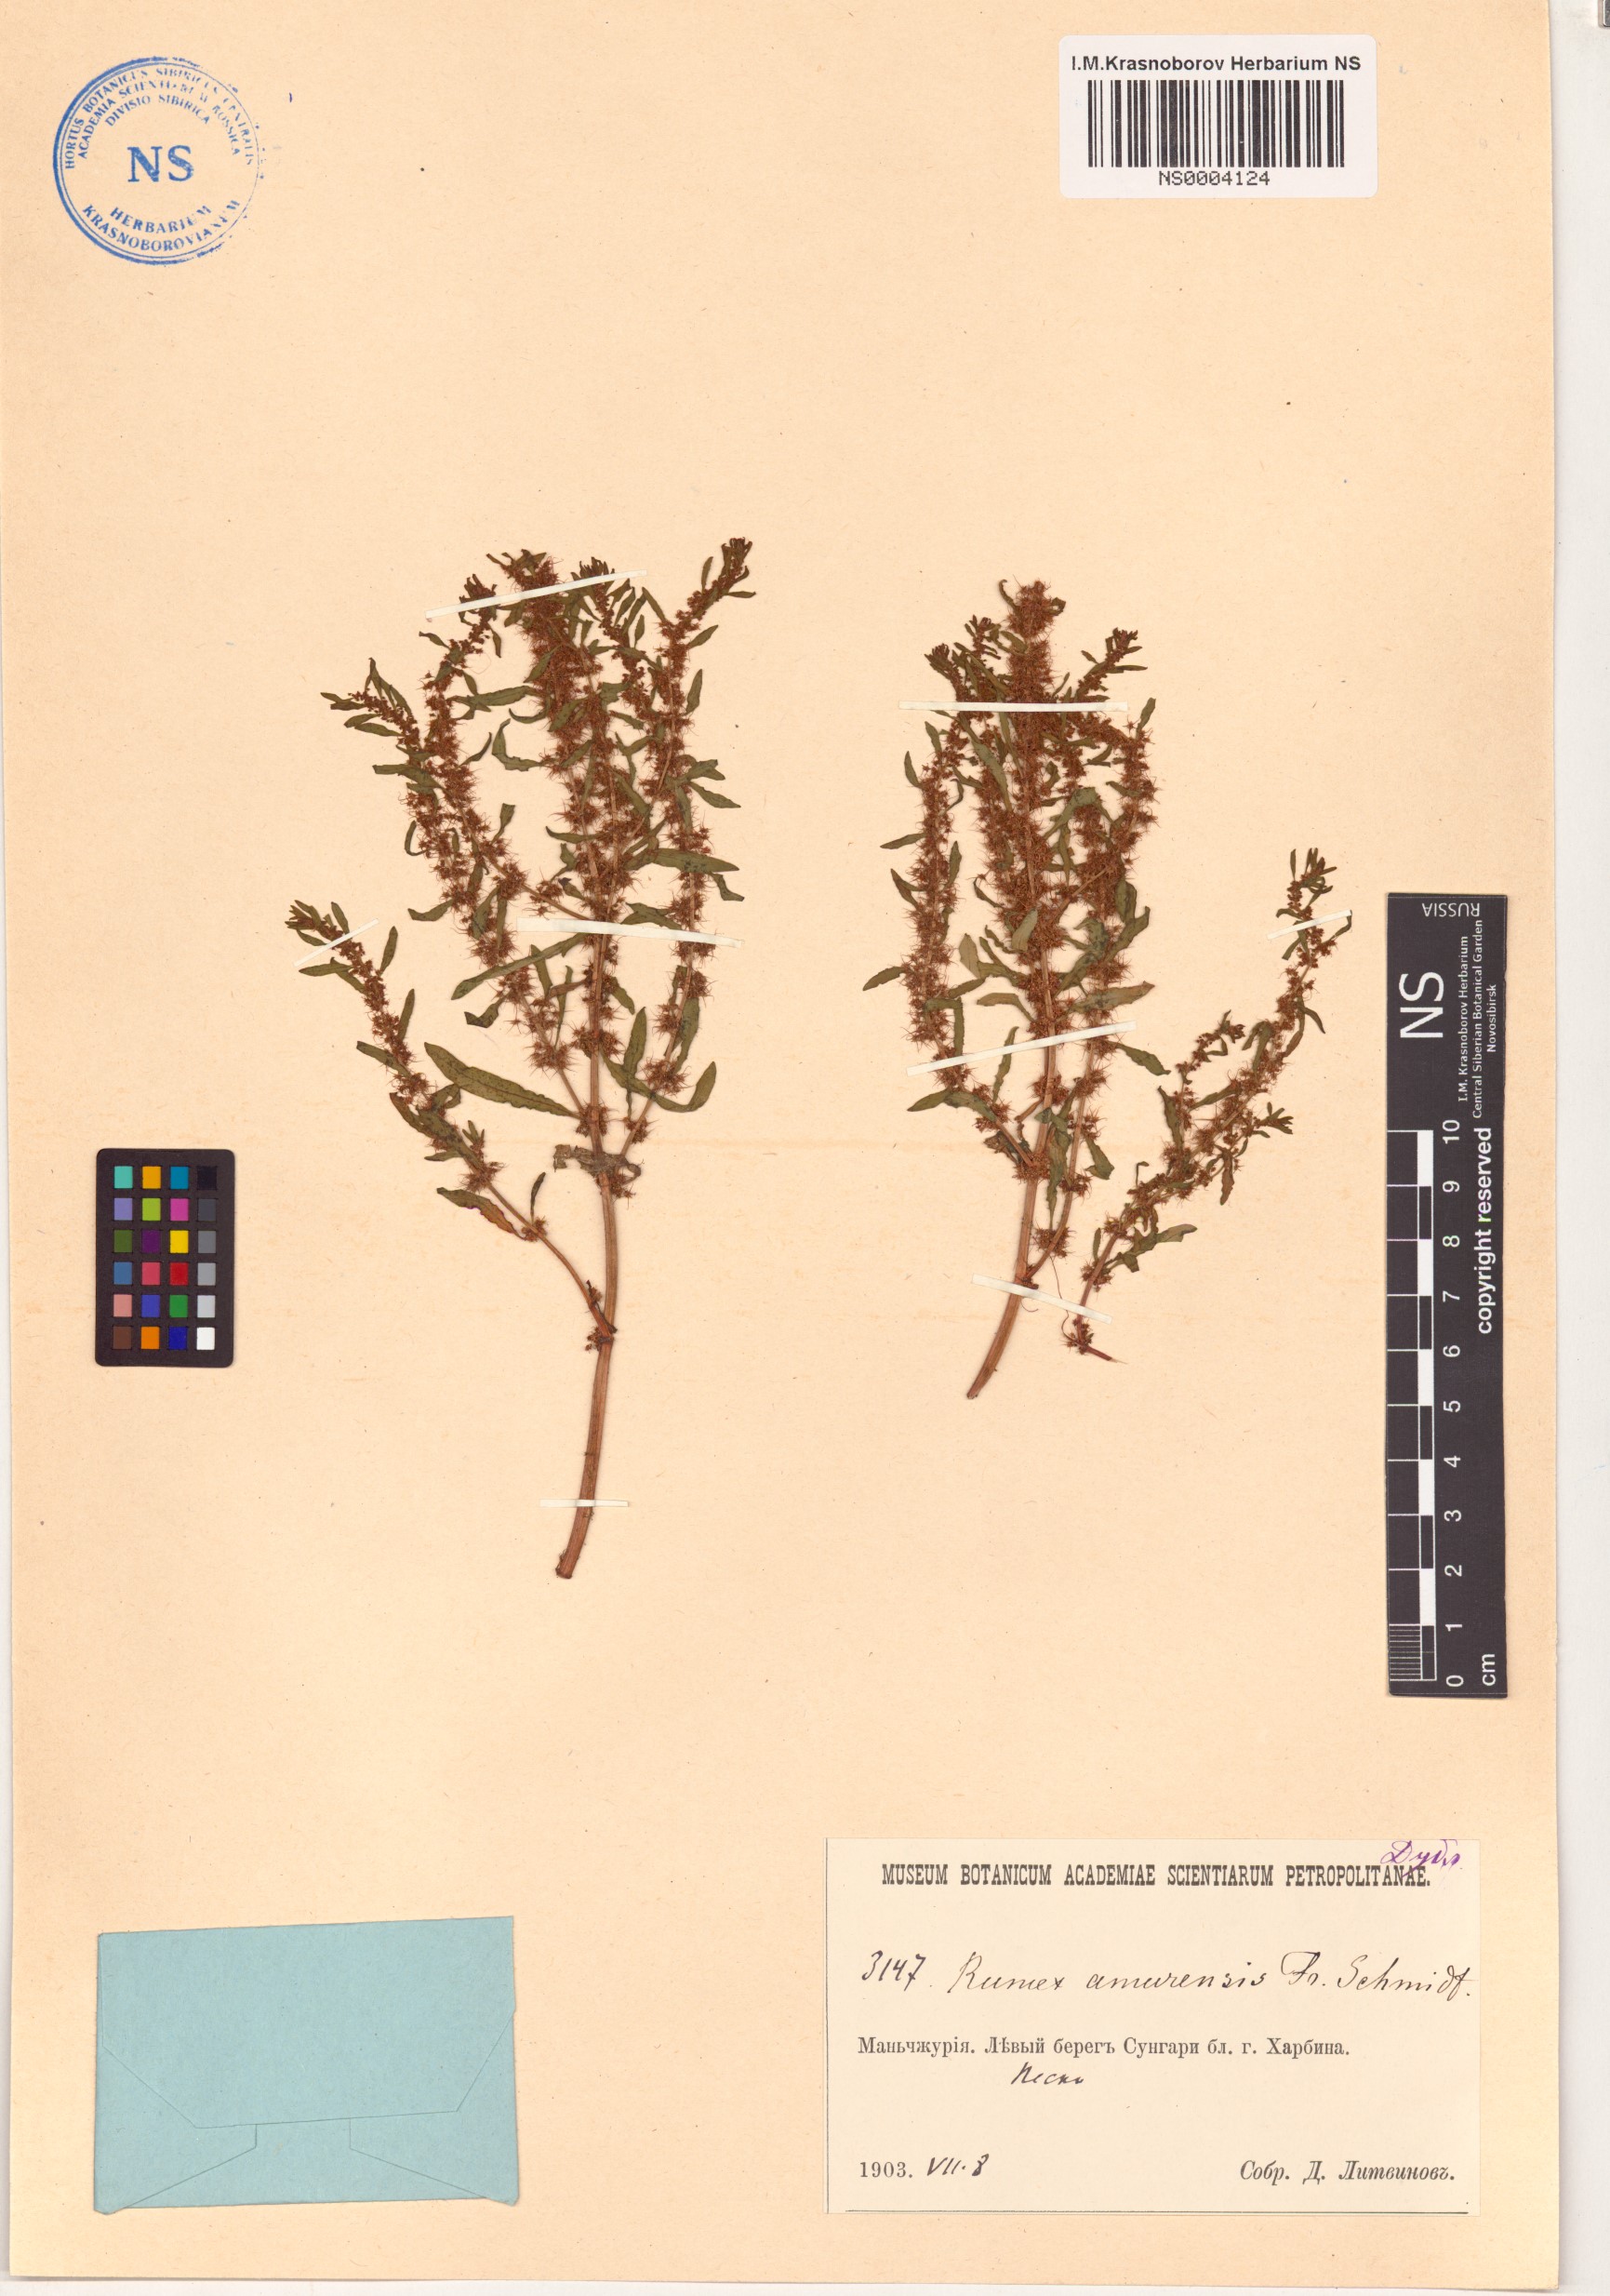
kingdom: Plantae
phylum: Tracheophyta
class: Magnoliopsida
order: Caryophyllales
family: Polygonaceae
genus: Rumex
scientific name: Rumex amurensis
